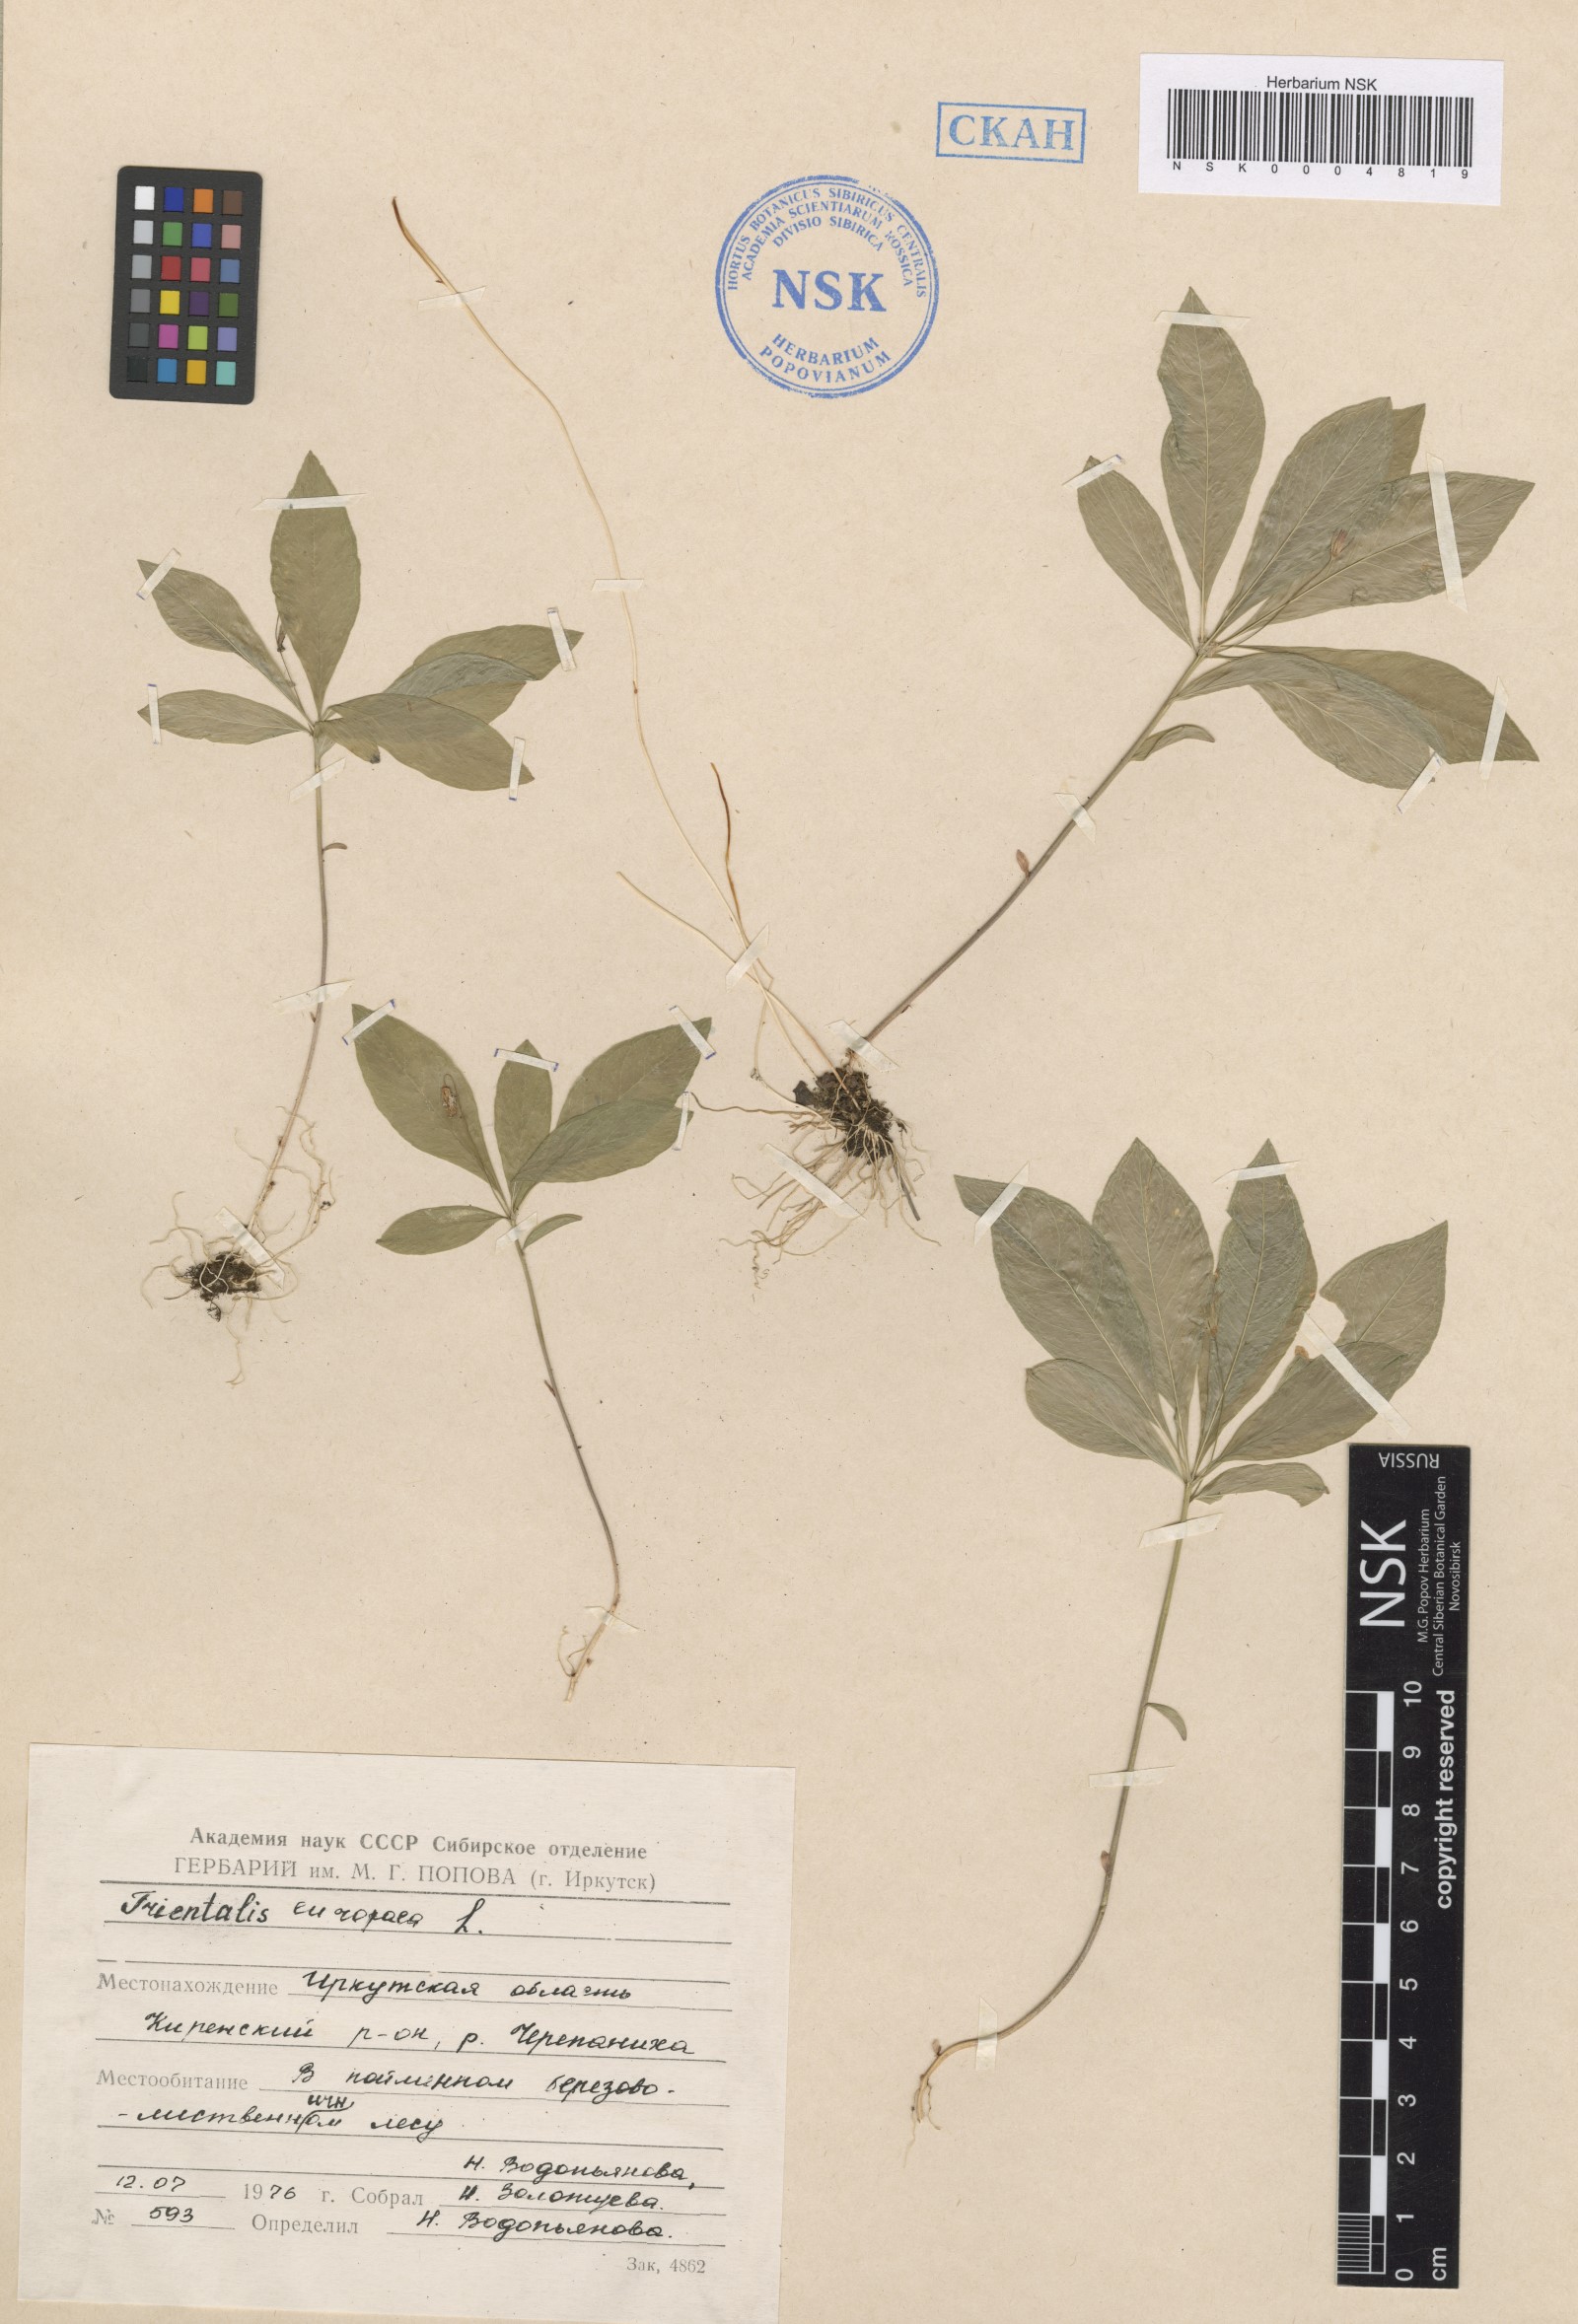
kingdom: Plantae
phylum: Tracheophyta
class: Magnoliopsida
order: Ericales
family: Primulaceae
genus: Lysimachia
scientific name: Lysimachia europaea
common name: Arctic starflower
